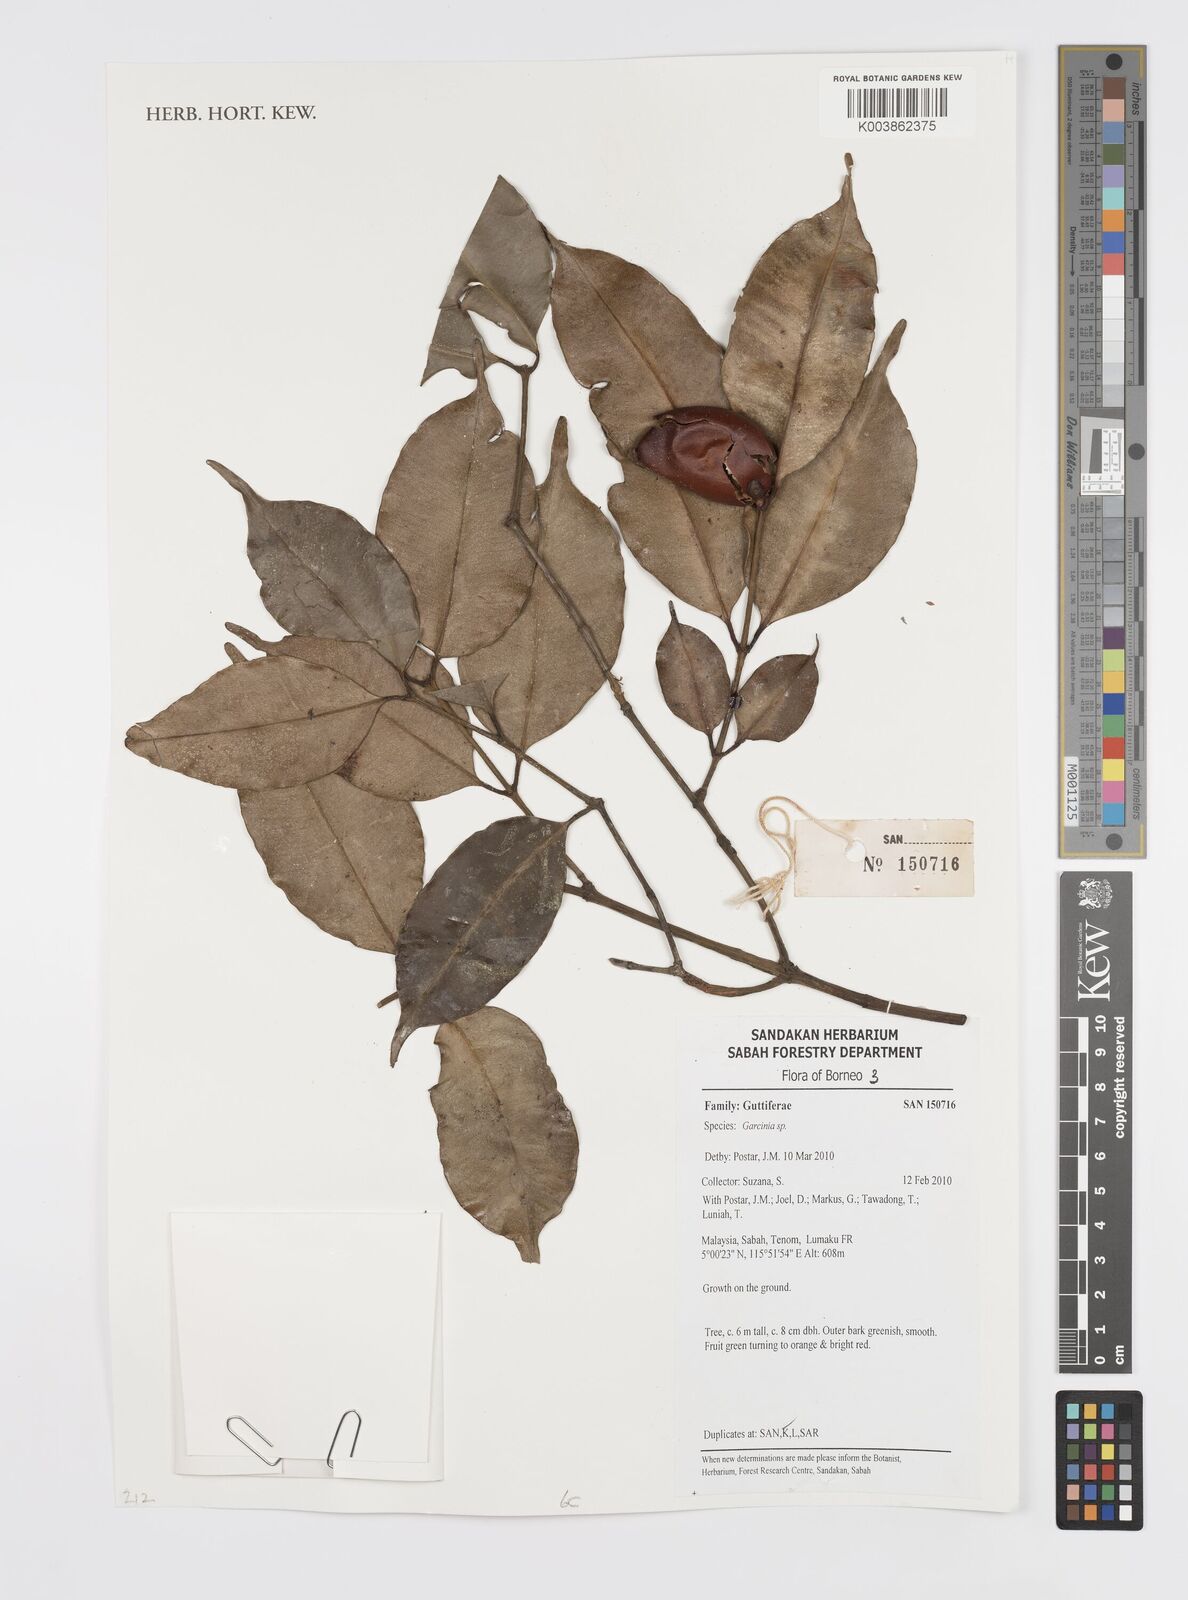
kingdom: Plantae
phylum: Tracheophyta
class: Magnoliopsida
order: Malpighiales
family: Clusiaceae
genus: Garcinia
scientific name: Garcinia
